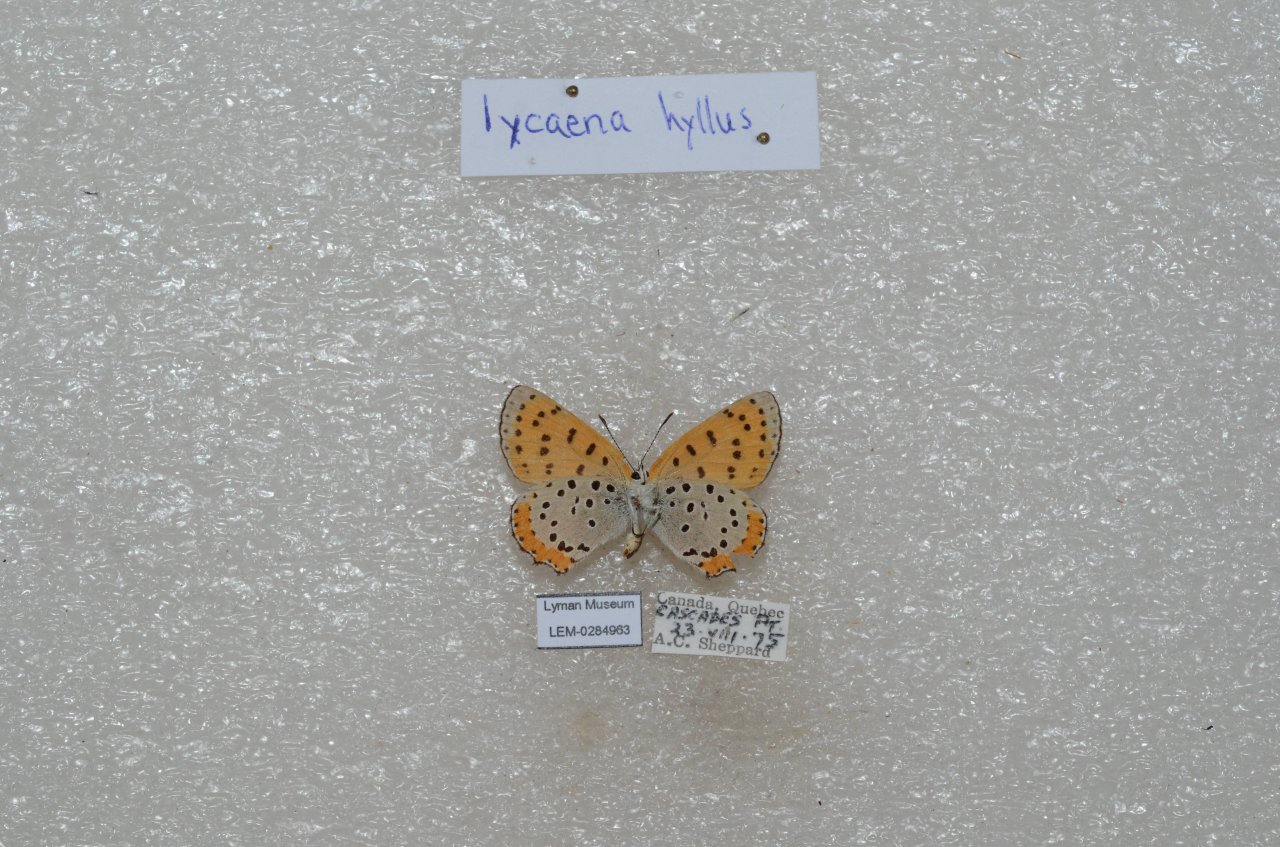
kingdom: Animalia
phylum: Arthropoda
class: Insecta
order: Lepidoptera
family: Sesiidae
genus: Sesia
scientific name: Sesia Lycaena hyllus
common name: Bronze Copper
